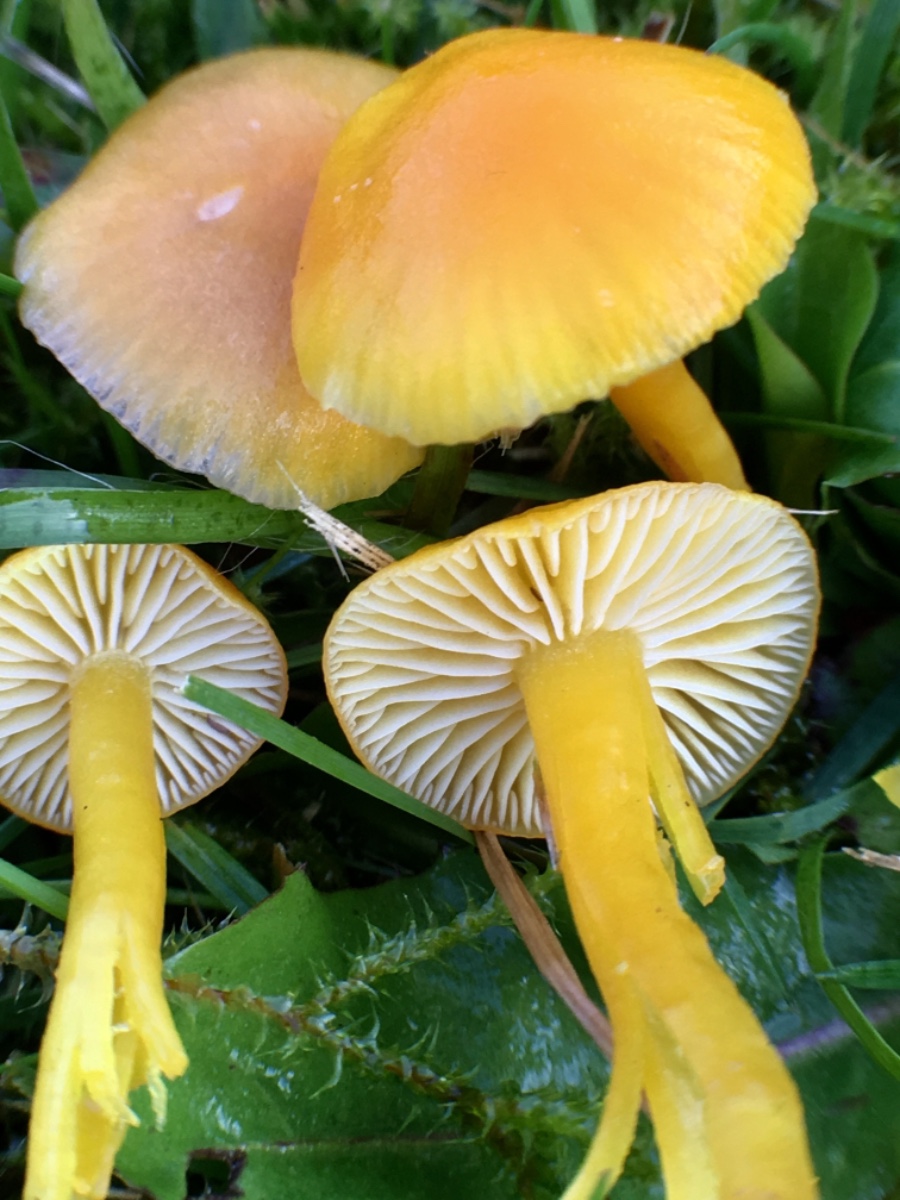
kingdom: Fungi
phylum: Basidiomycota
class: Agaricomycetes
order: Agaricales
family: Hygrophoraceae
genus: Hygrocybe
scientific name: Hygrocybe ceracea
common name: voksgul vokshat
